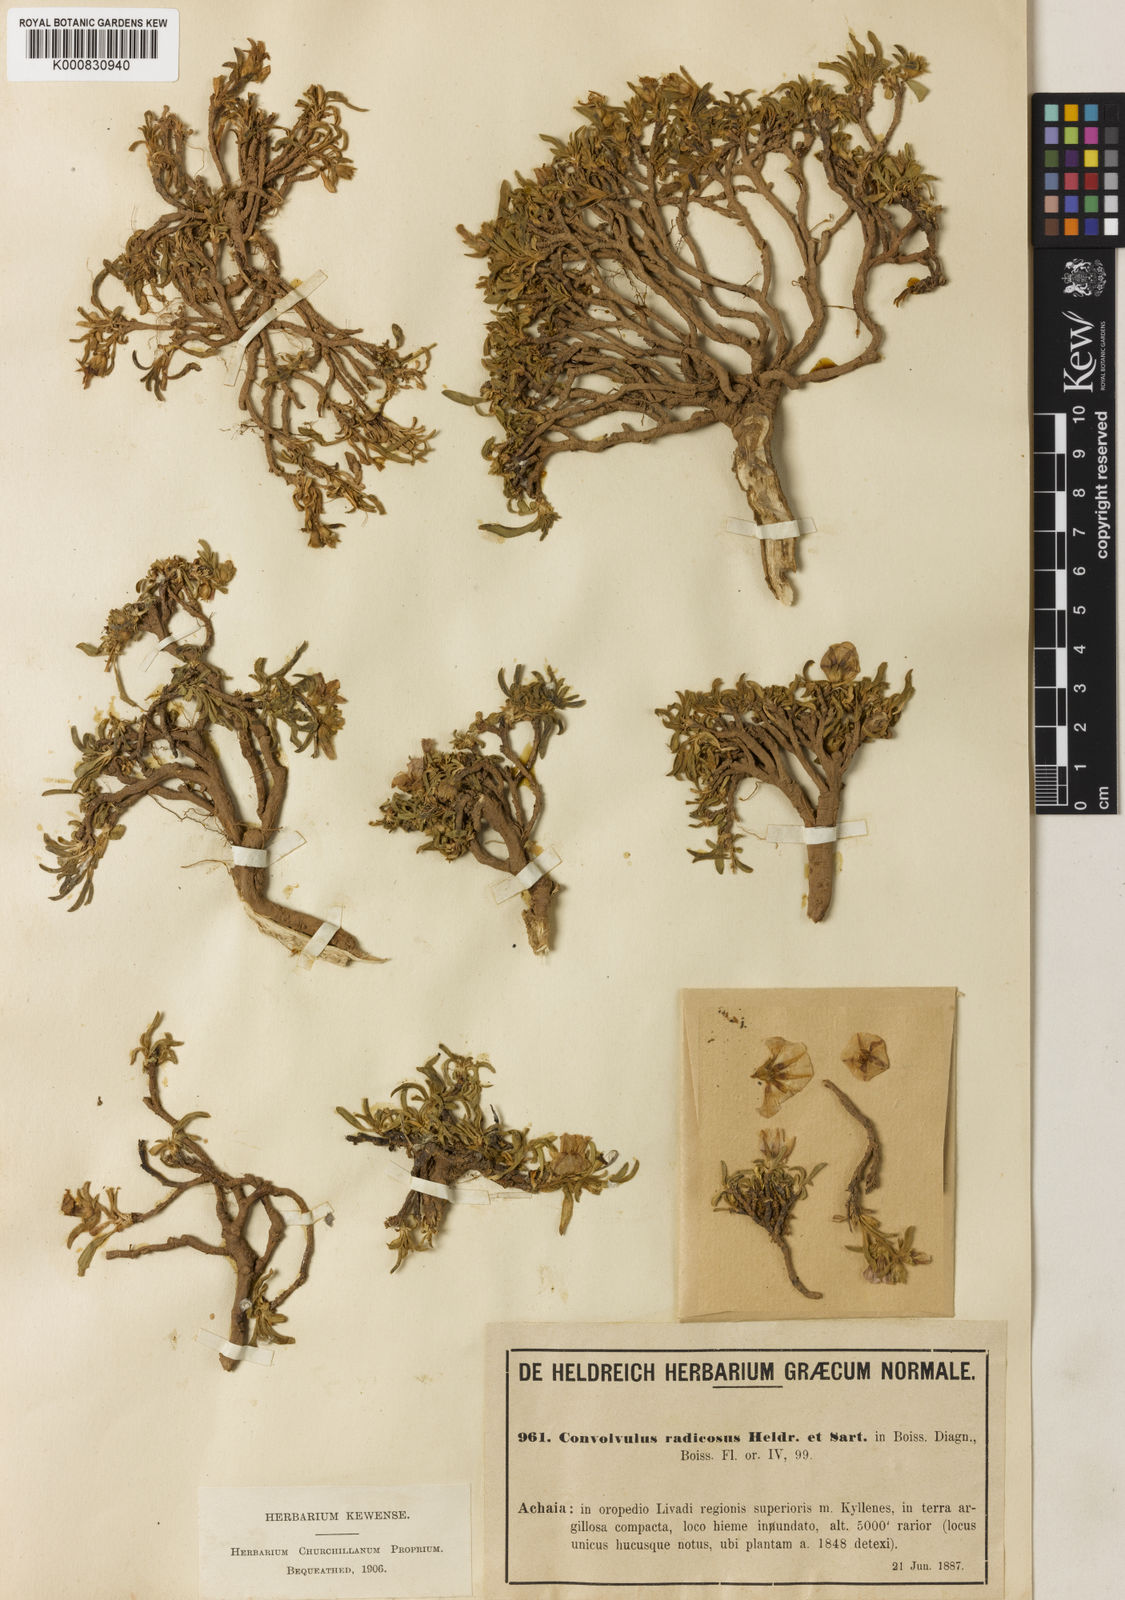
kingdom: Plantae
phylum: Tracheophyta
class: Magnoliopsida
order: Solanales
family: Convolvulaceae
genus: Convolvulus
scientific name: Convolvulus libanoticus
